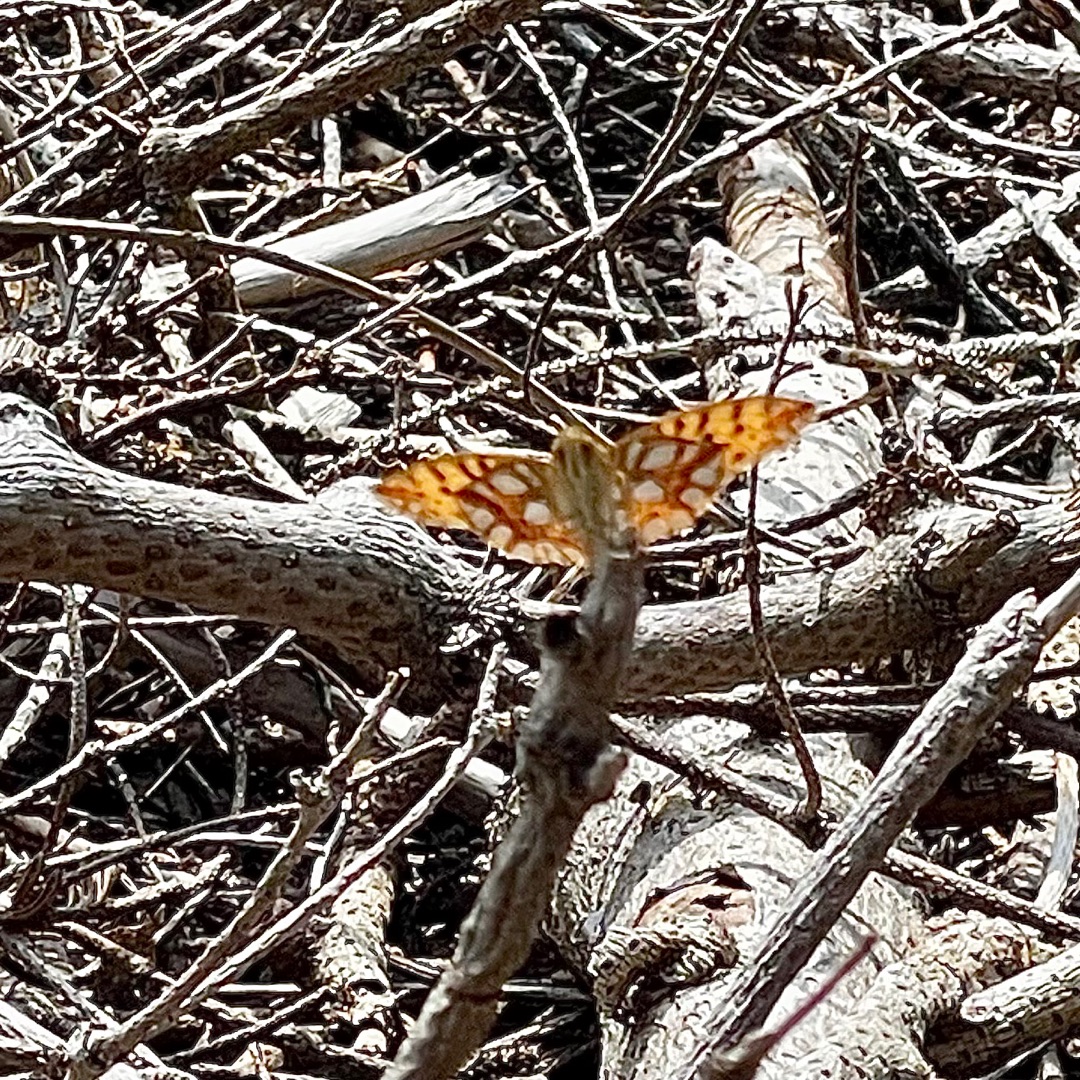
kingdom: Animalia
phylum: Arthropoda
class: Insecta
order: Lepidoptera
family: Nymphalidae
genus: Issoria
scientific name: Issoria lathonia
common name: Storplettet perlemorsommerfugl
